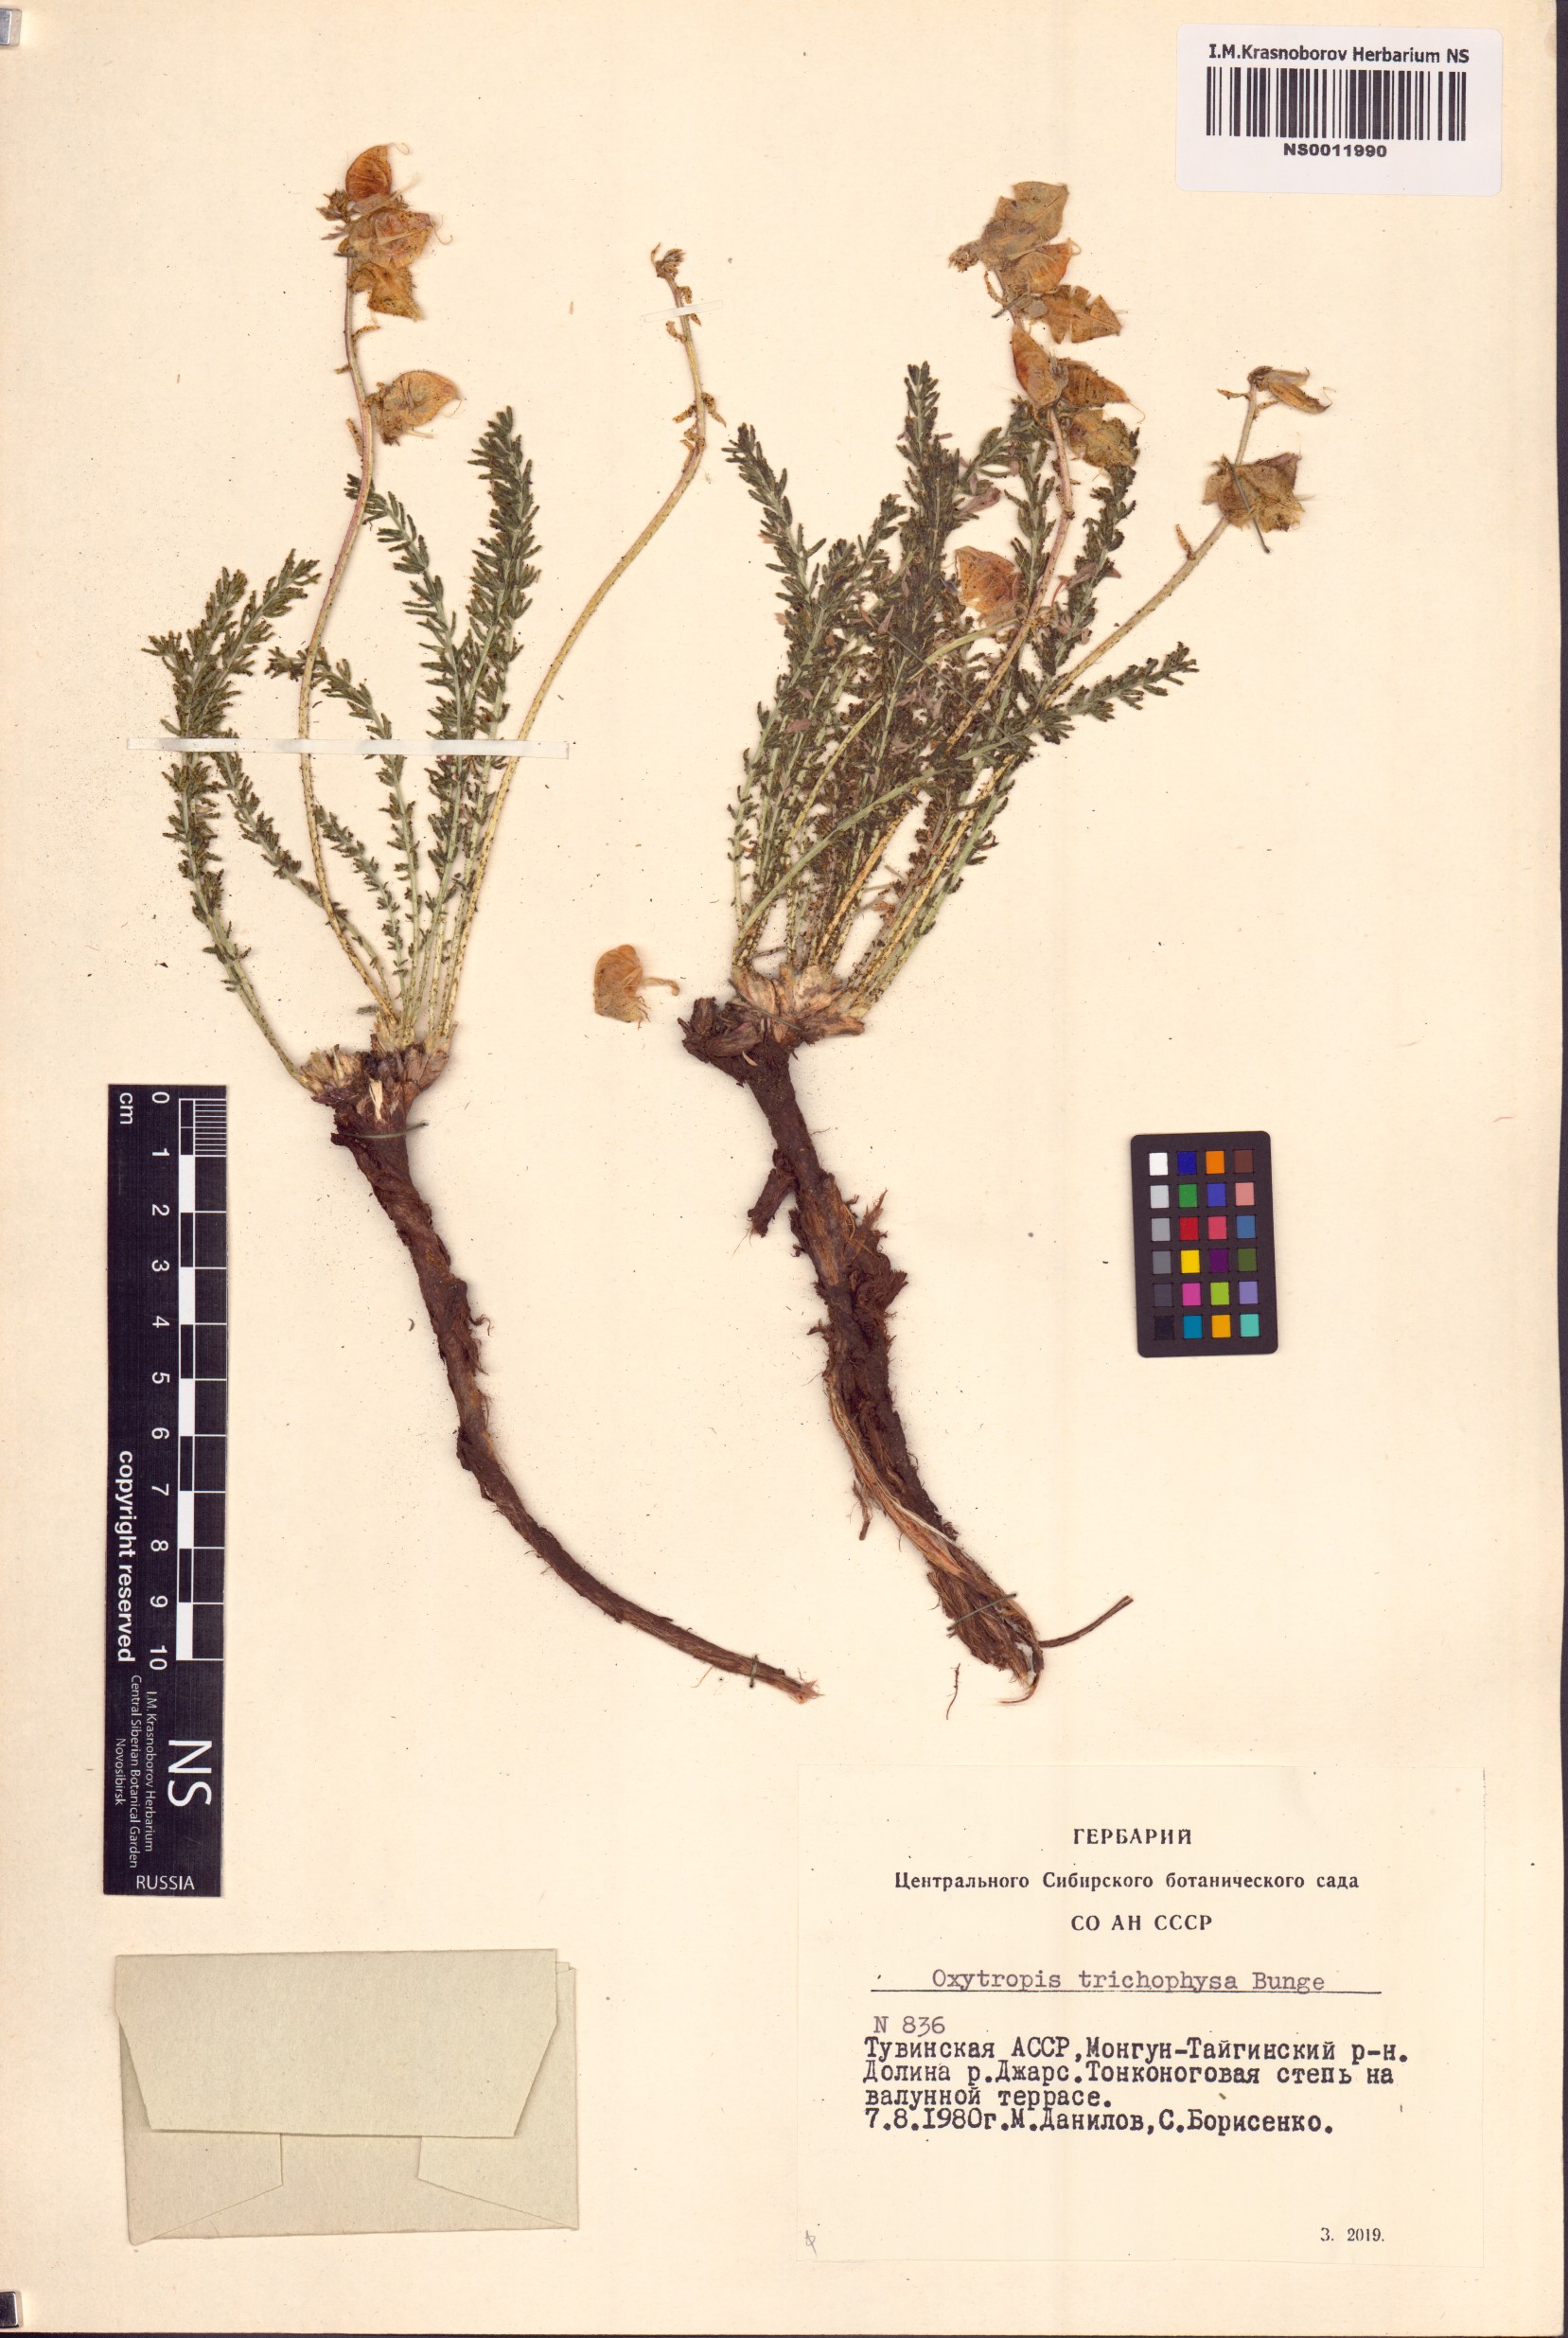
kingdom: Plantae
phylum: Tracheophyta
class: Magnoliopsida
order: Fabales
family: Fabaceae
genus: Oxytropis
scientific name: Oxytropis trichophysa
